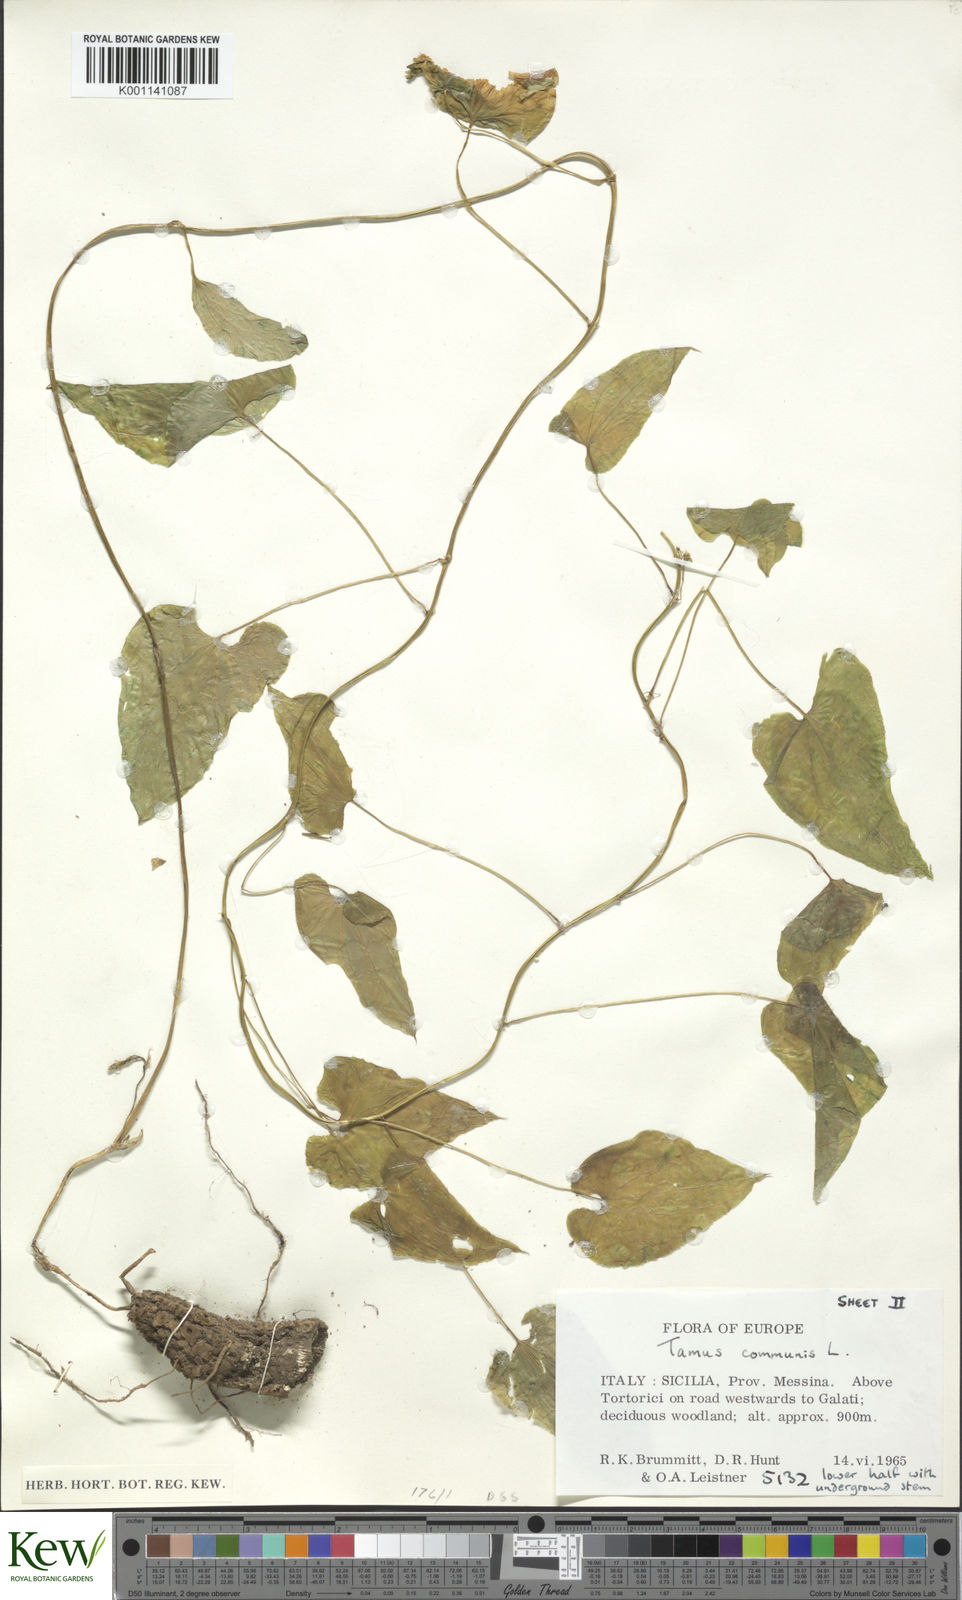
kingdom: Plantae
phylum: Tracheophyta
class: Liliopsida
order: Dioscoreales
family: Dioscoreaceae
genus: Dioscorea
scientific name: Dioscorea communis
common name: Black-bindweed
